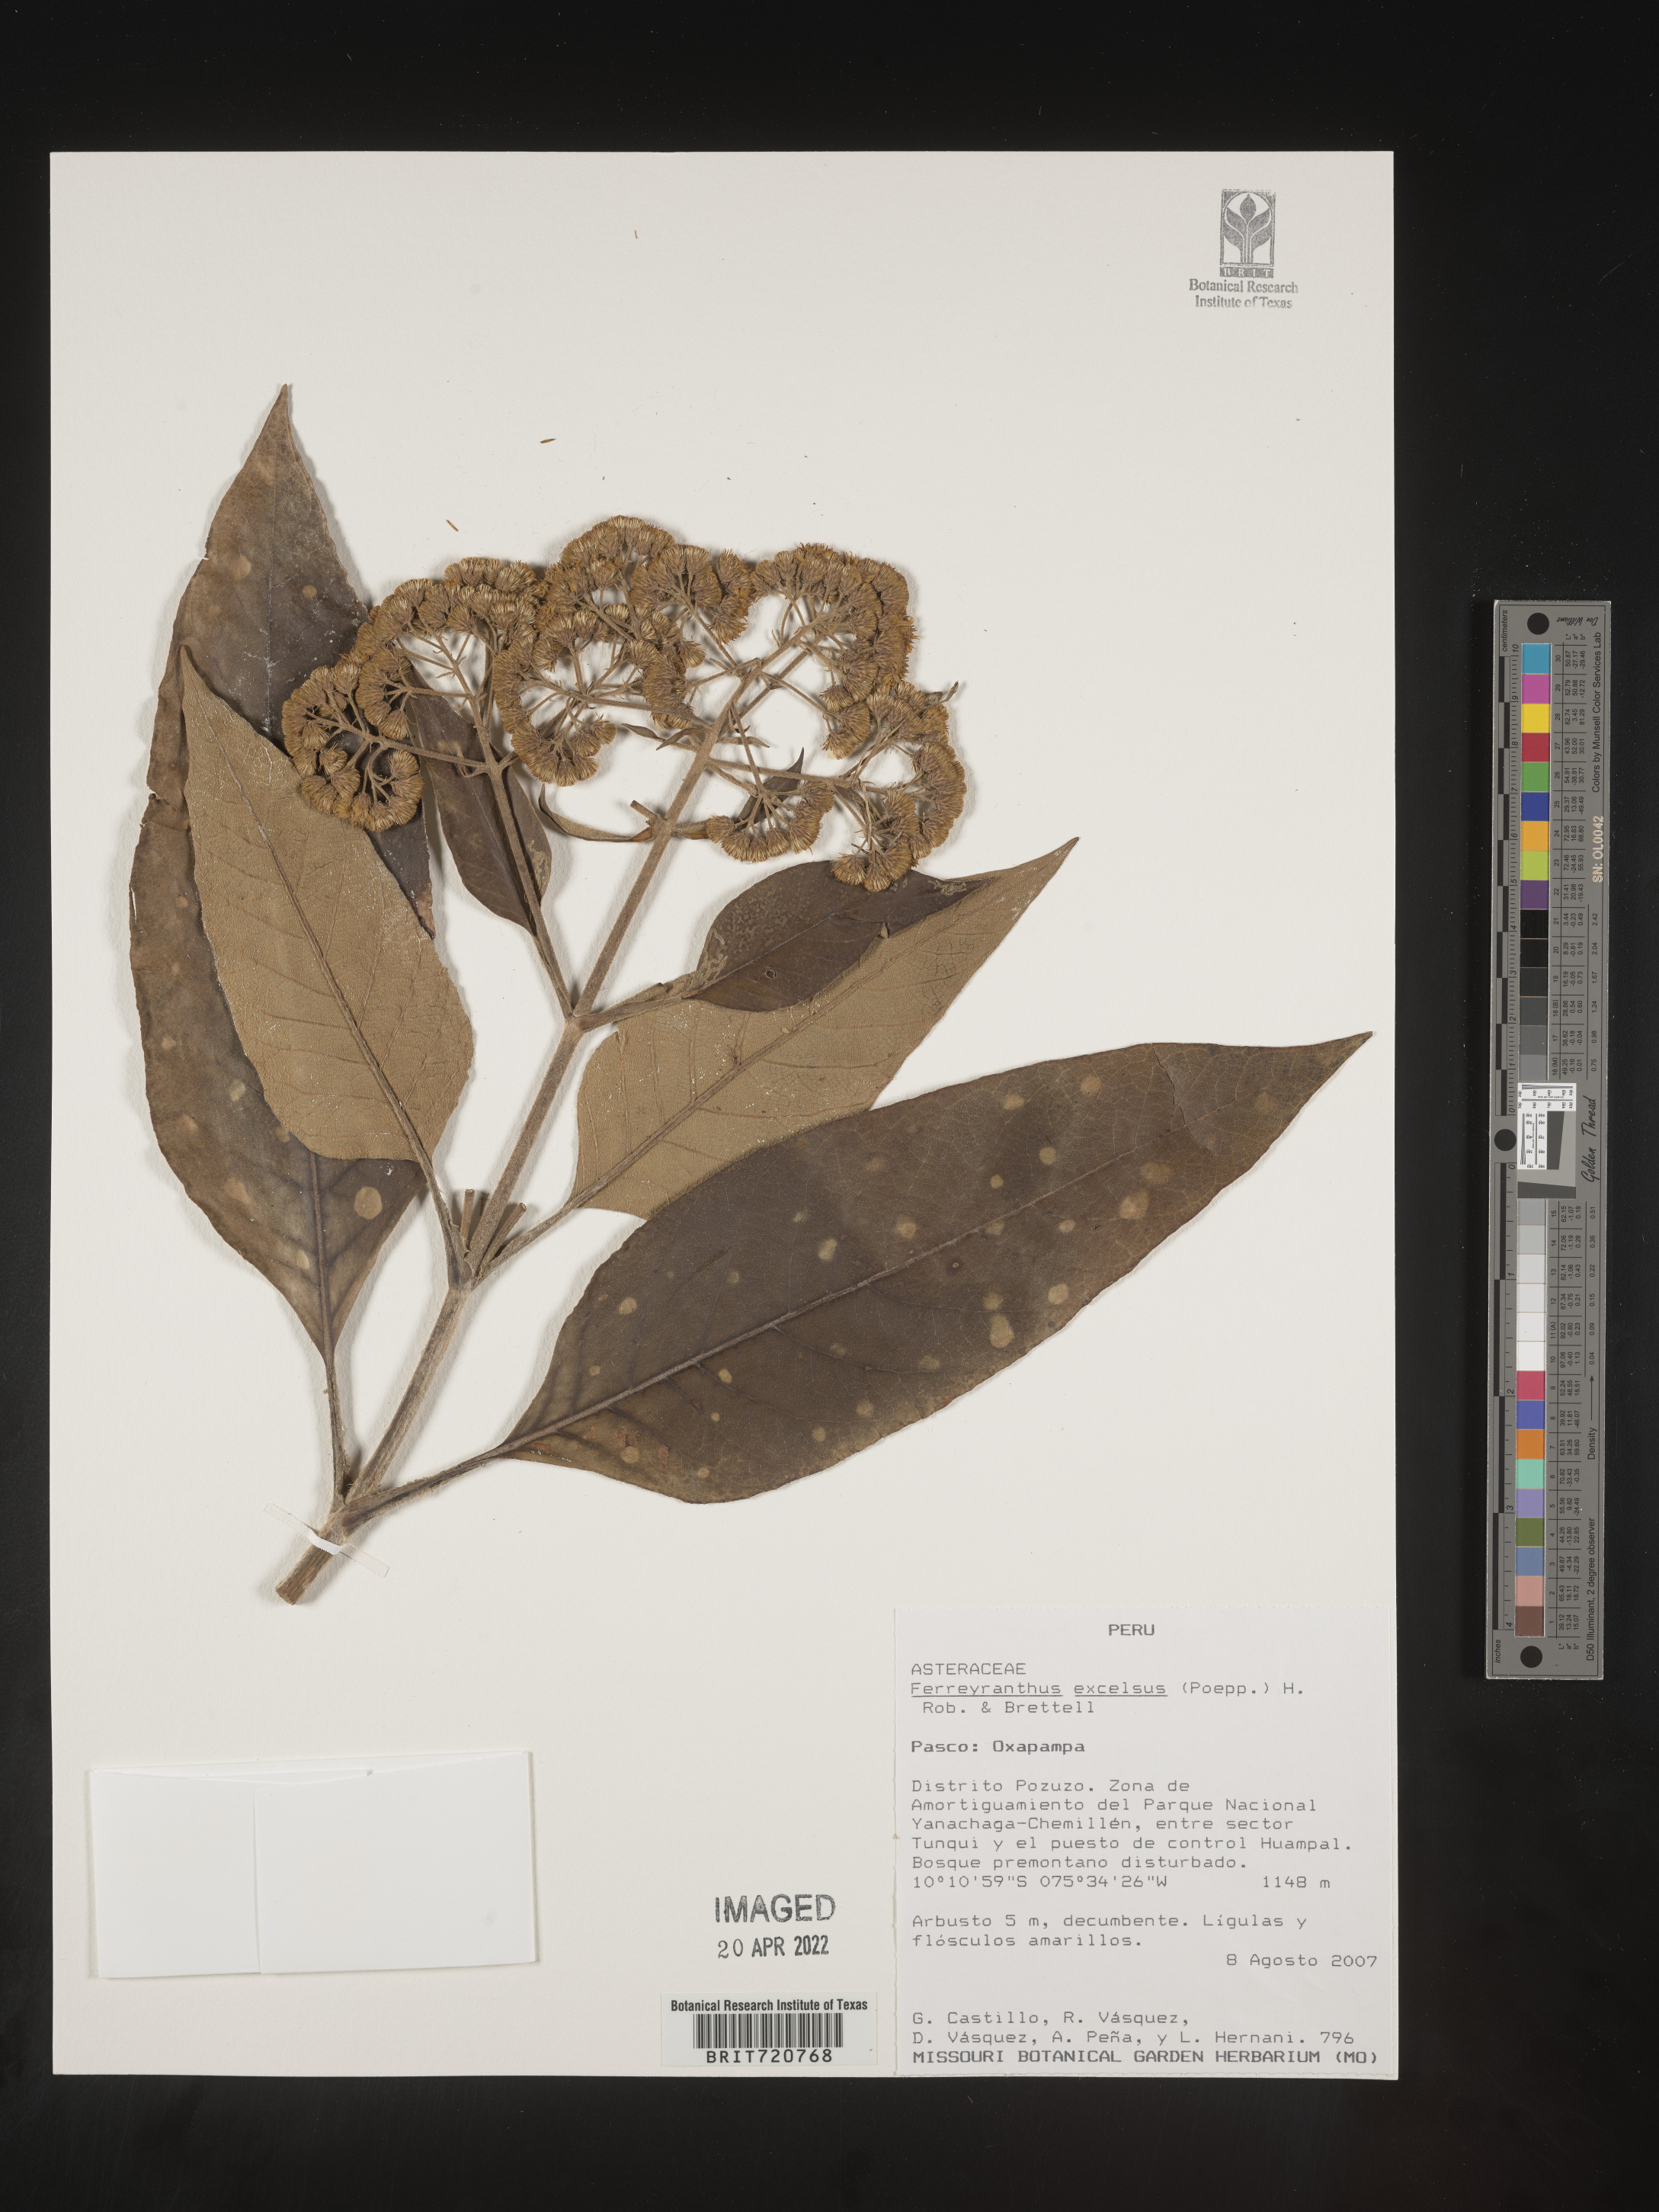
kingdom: Plantae
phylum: Tracheophyta
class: Magnoliopsida
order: Asterales
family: Asteraceae
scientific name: Asteraceae
